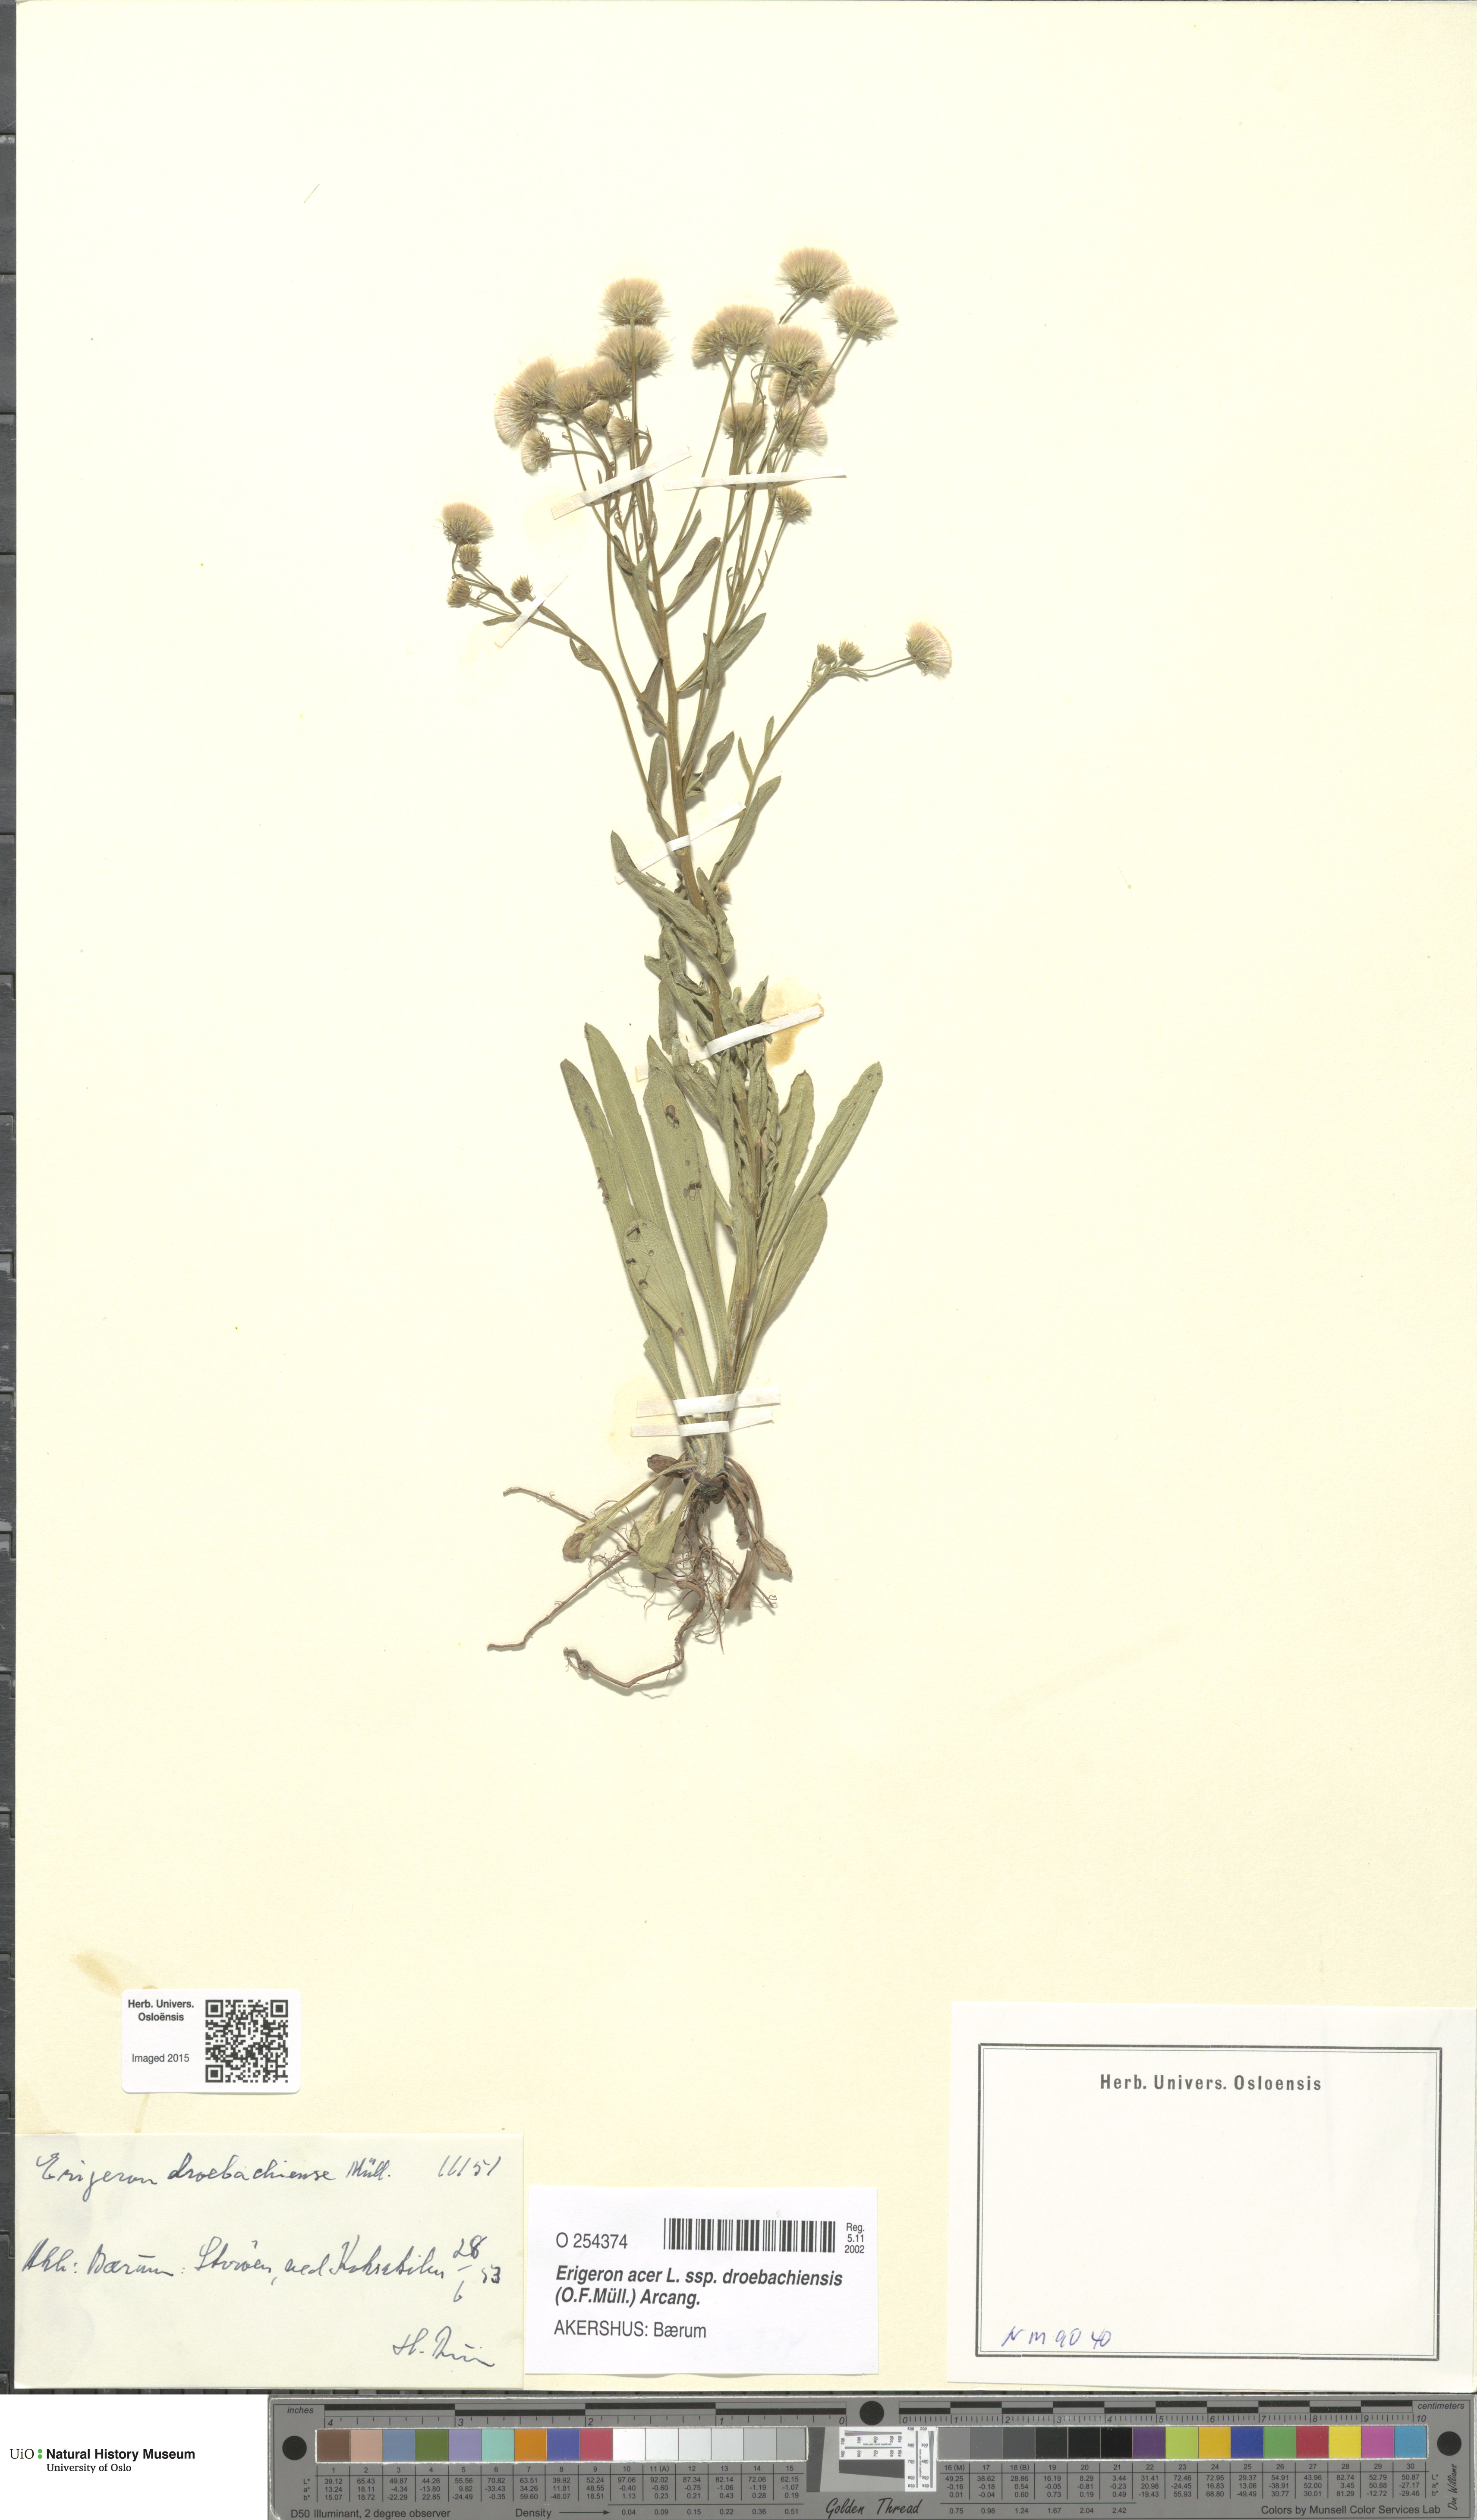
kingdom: Plantae
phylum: Tracheophyta
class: Magnoliopsida
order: Asterales
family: Asteraceae
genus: Erigeron
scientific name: Erigeron droebachiensis
